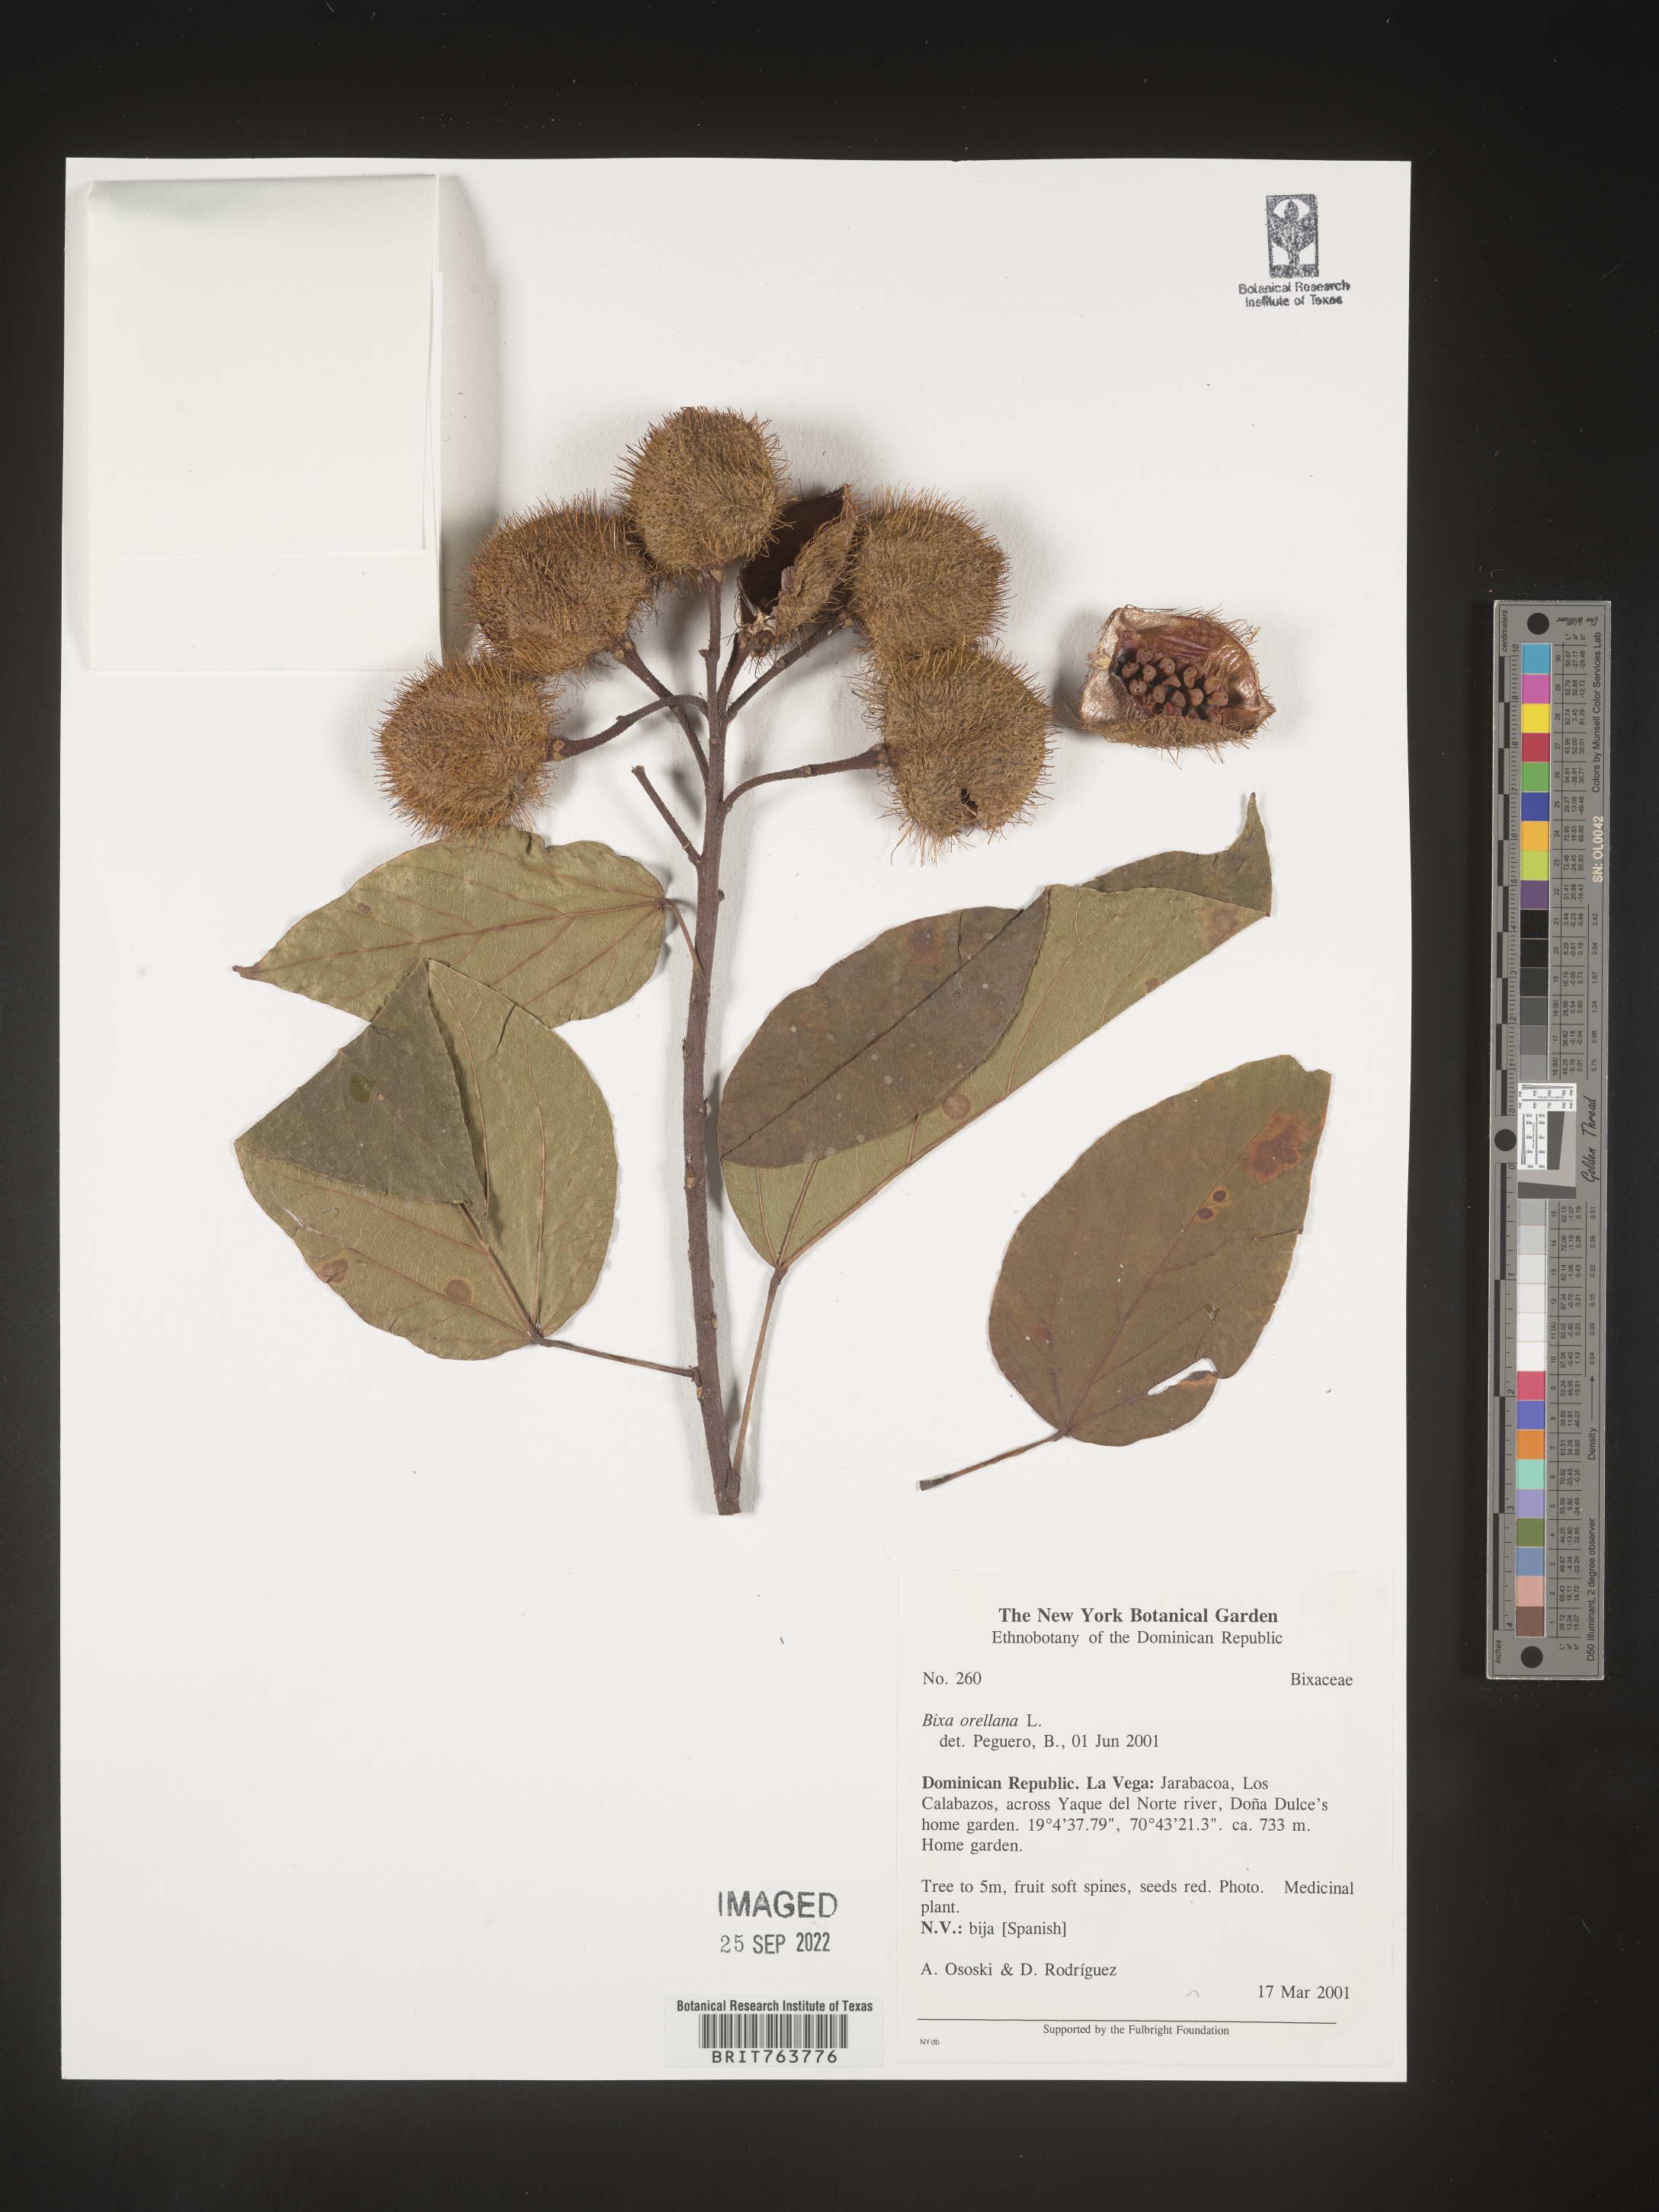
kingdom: Plantae
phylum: Tracheophyta
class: Magnoliopsida
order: Malvales
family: Bixaceae
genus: Bixa
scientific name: Bixa
